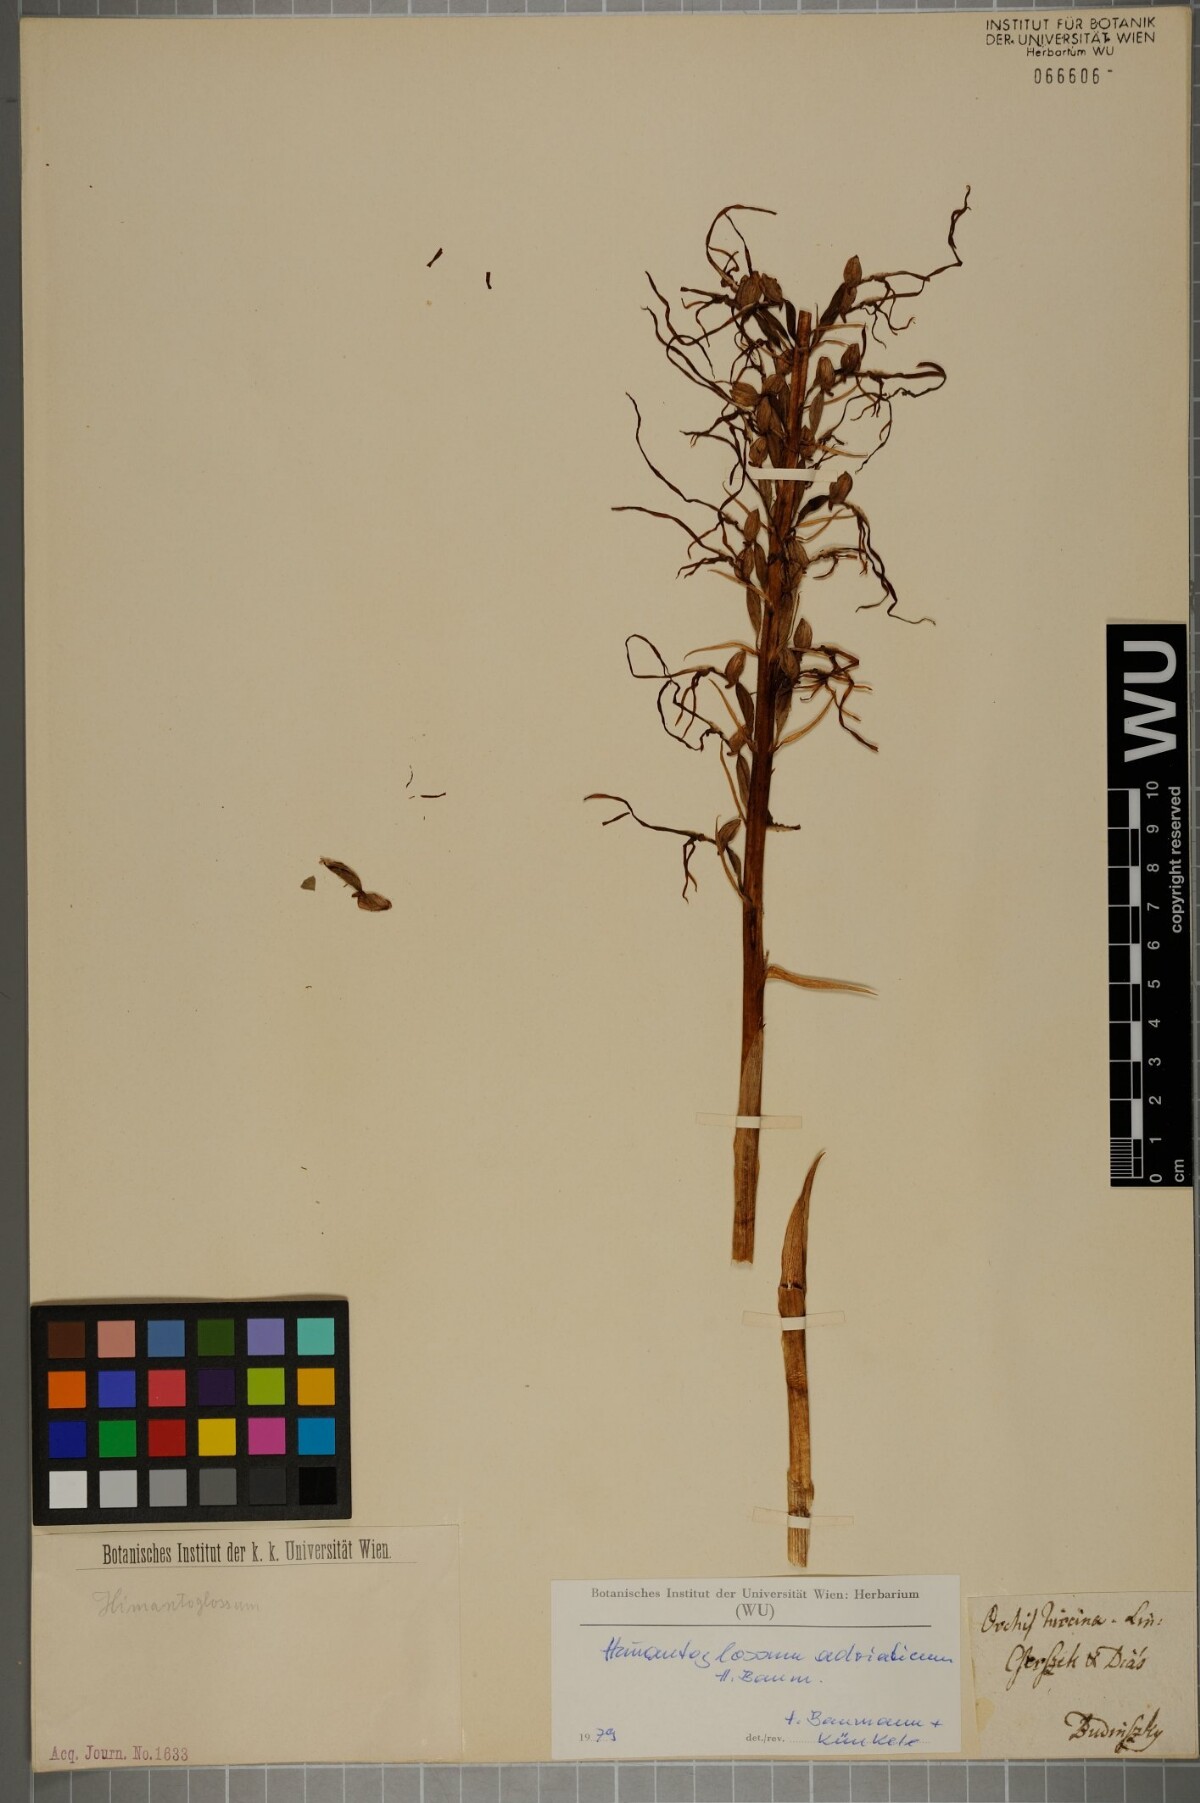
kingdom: Plantae
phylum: Tracheophyta
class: Liliopsida
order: Asparagales
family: Orchidaceae
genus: Himantoglossum
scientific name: Himantoglossum adriaticum
